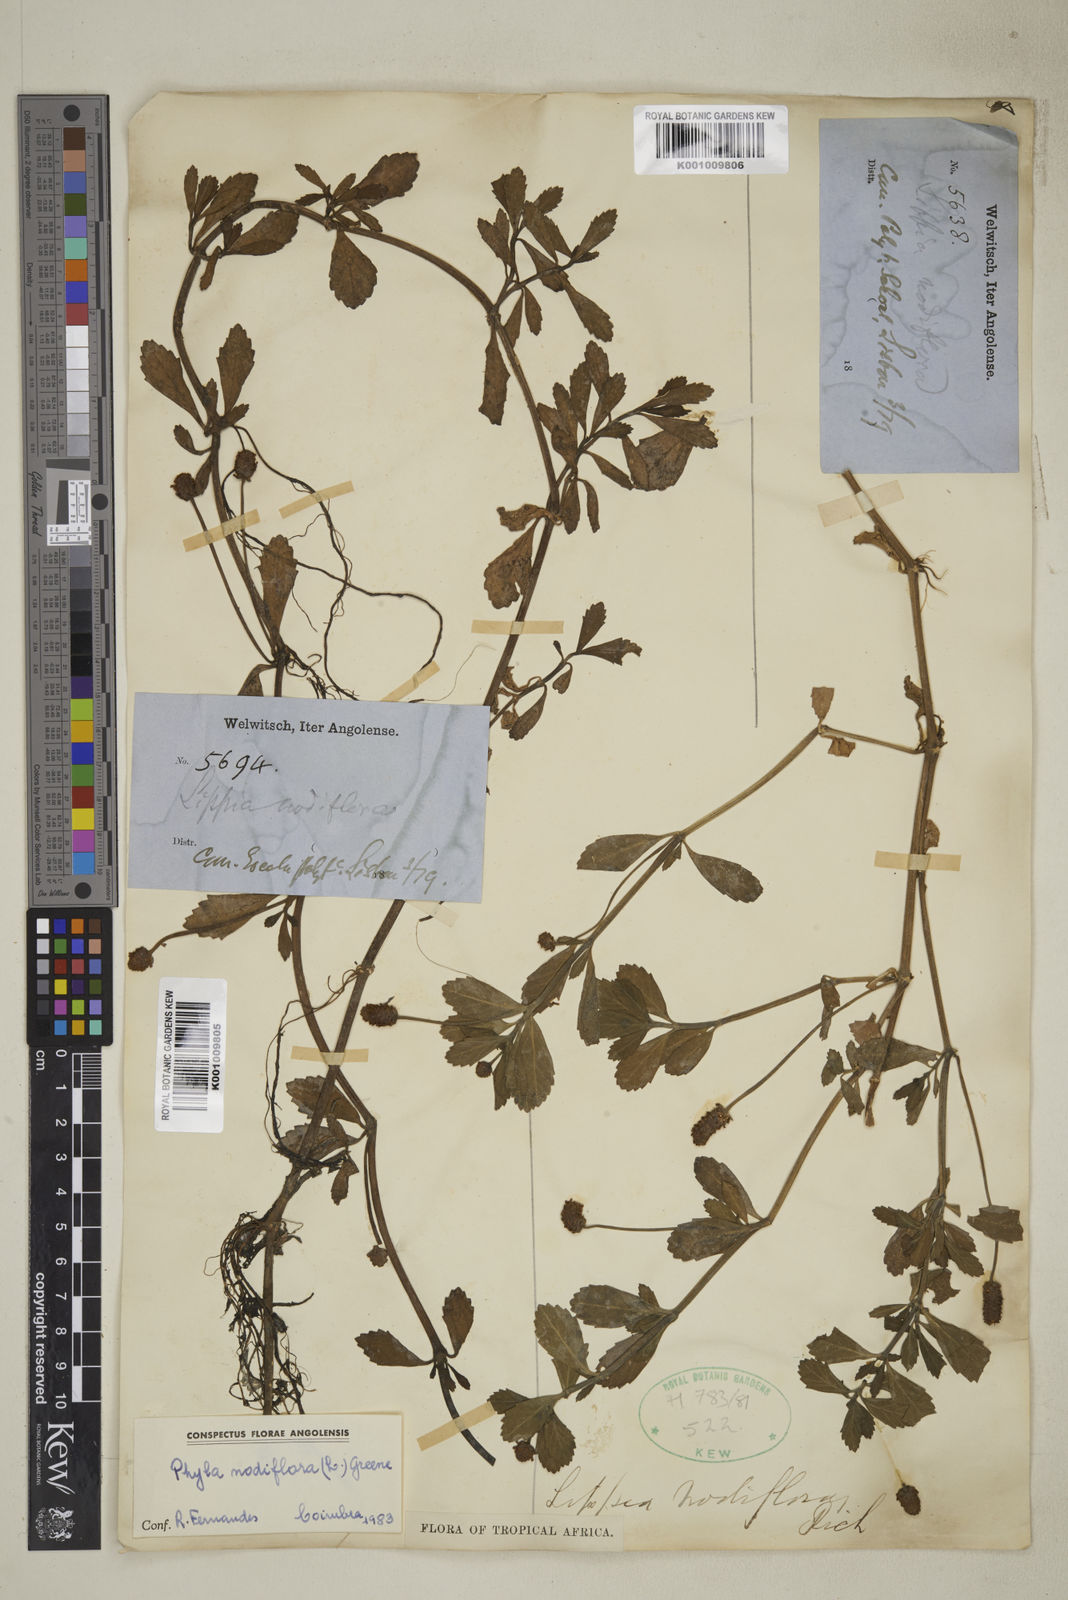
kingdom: Plantae
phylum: Tracheophyta
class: Magnoliopsida
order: Lamiales
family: Verbenaceae
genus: Phyla
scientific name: Phyla nodiflora
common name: Frogfruit
